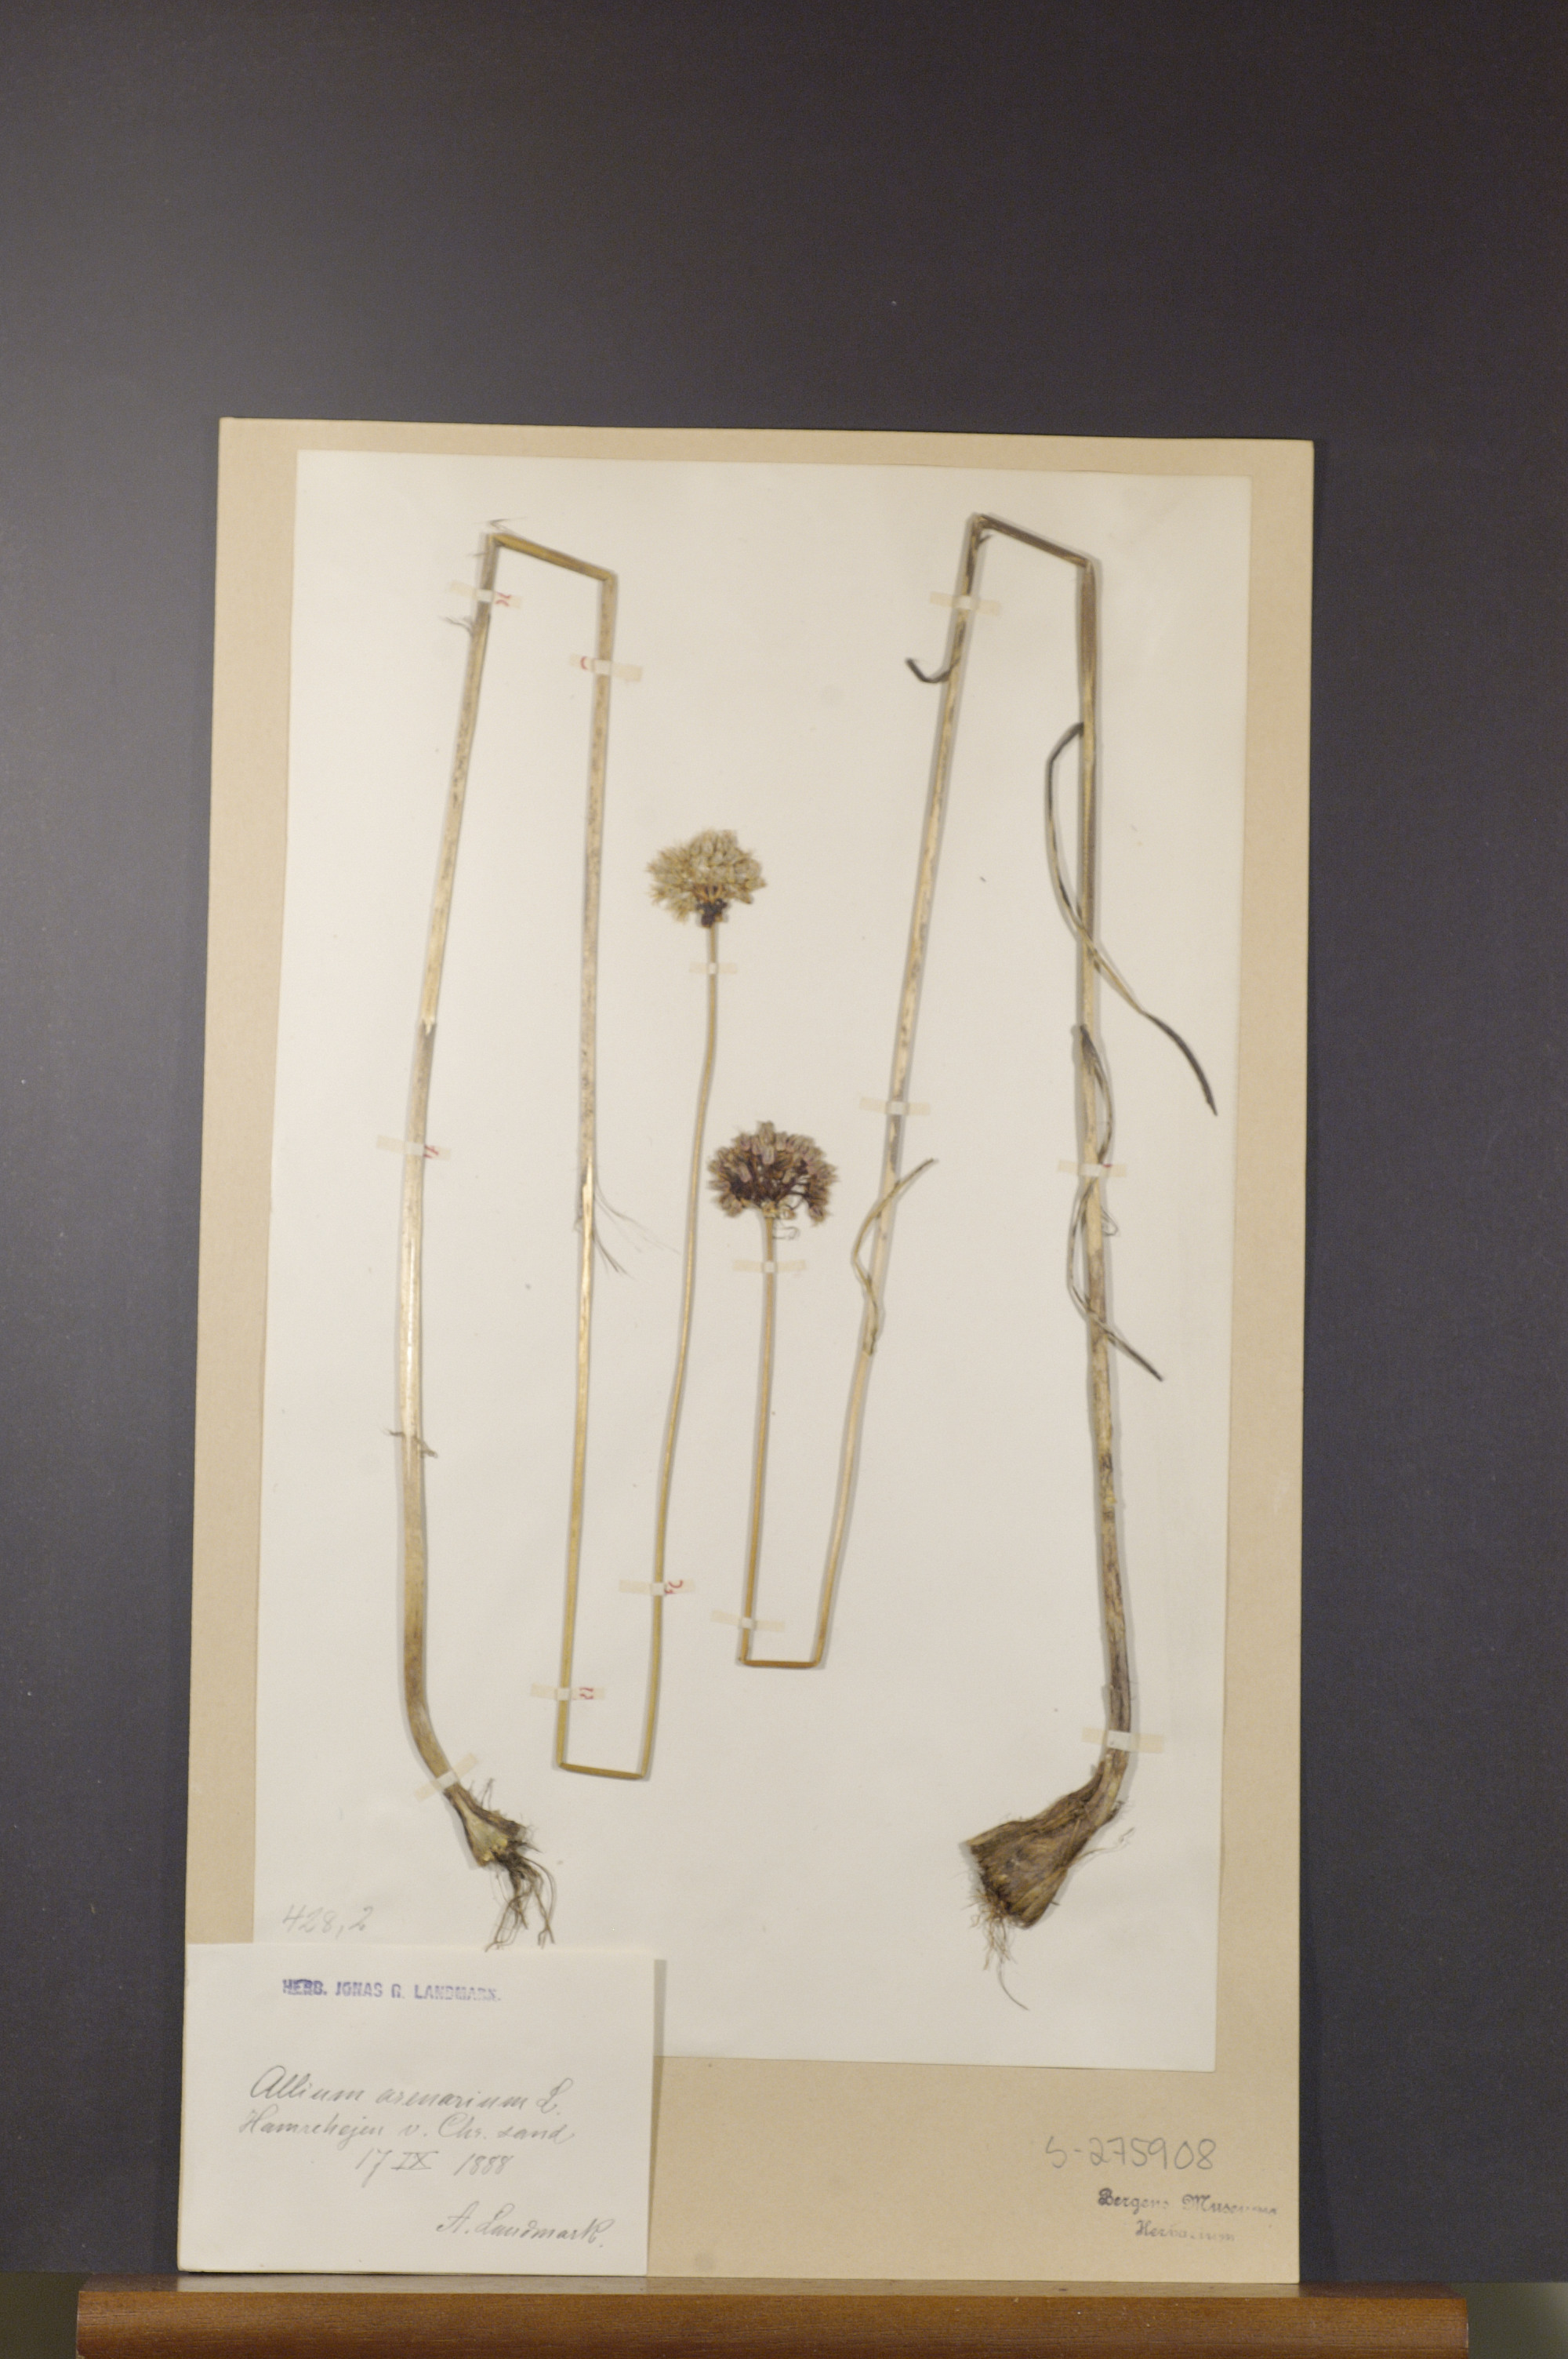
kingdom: Plantae
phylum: Tracheophyta
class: Liliopsida
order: Asparagales
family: Amaryllidaceae
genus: Allium
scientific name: Allium vineale
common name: Crow garlic
